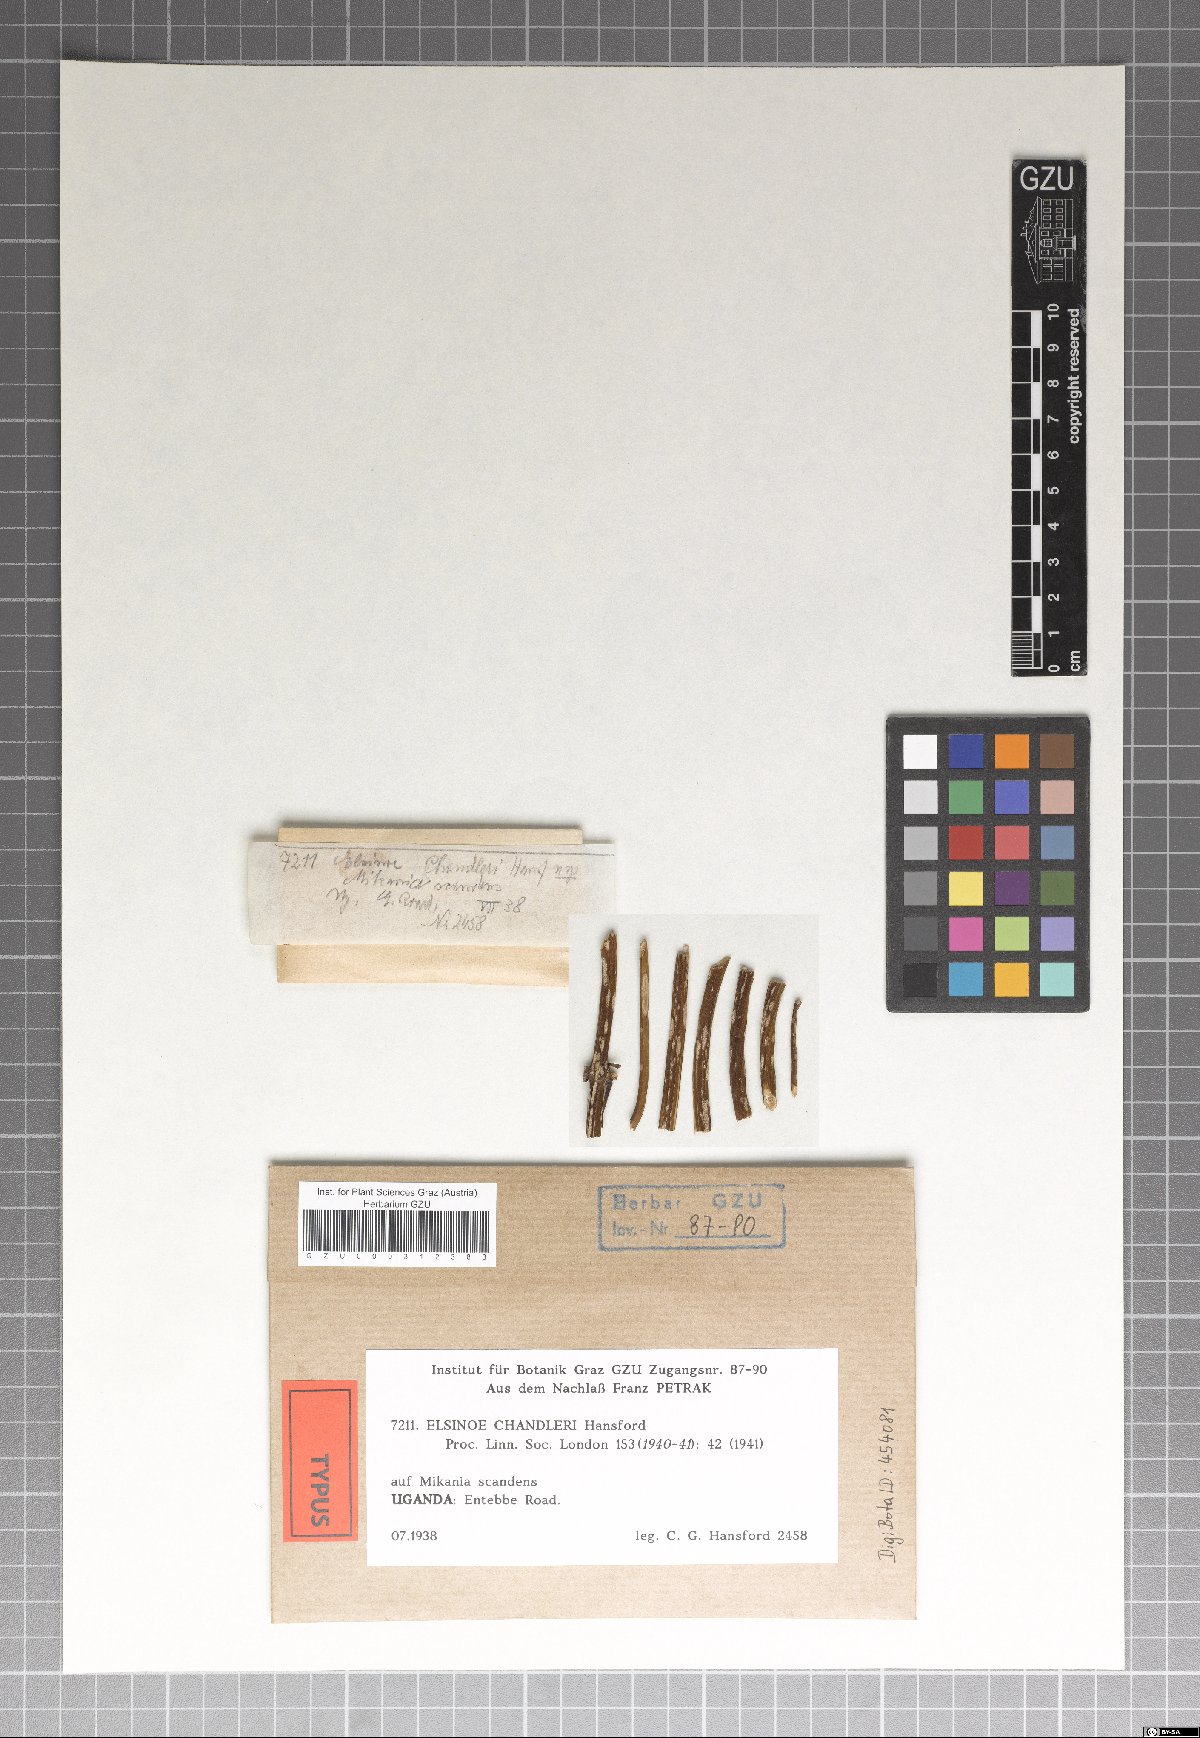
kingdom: Fungi
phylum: Ascomycota
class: Dothideomycetes
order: Myriangiales
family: Elsinoaceae
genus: Elsinoe
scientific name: Elsinoe chandleri
